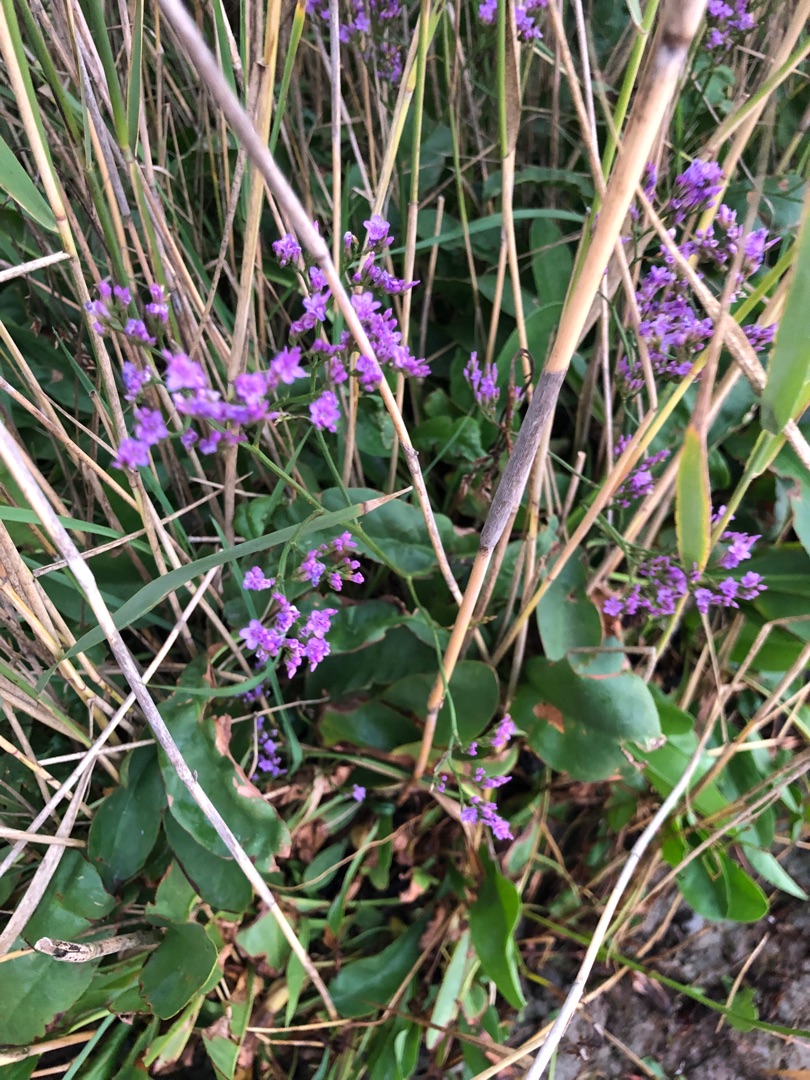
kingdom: Plantae
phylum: Tracheophyta
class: Magnoliopsida
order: Caryophyllales
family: Plumbaginaceae
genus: Limonium
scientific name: Limonium vulgare
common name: Tætblomstret hindebæger
